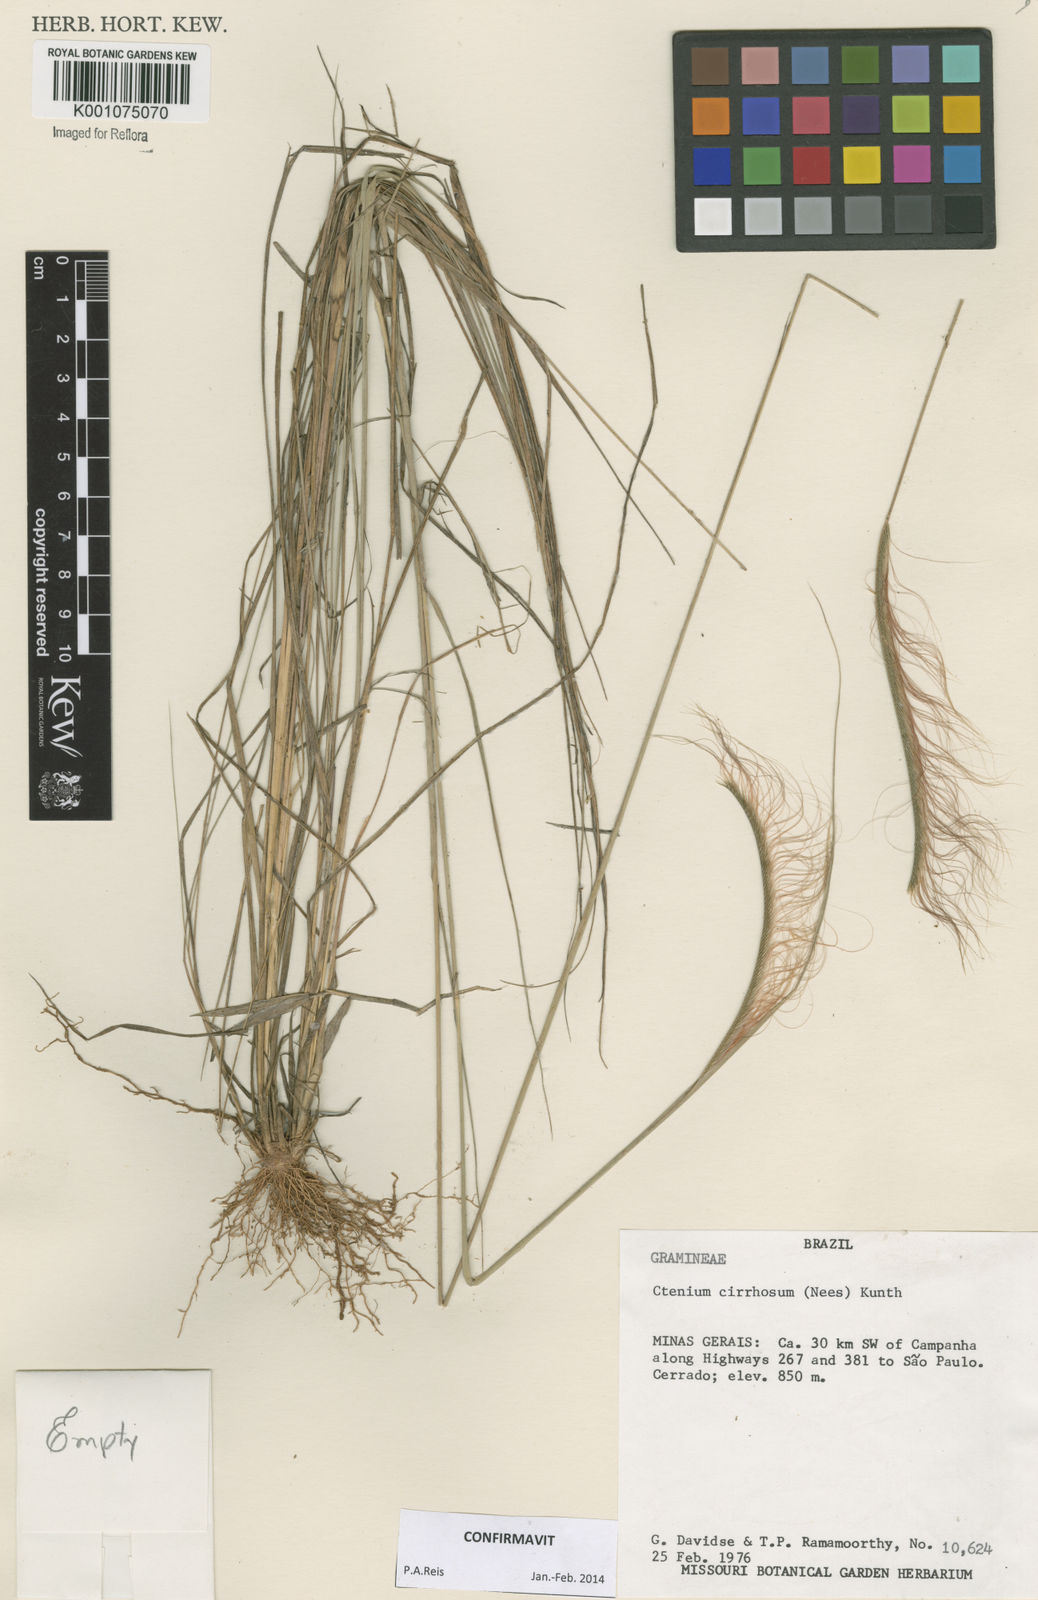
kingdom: Plantae
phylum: Tracheophyta
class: Liliopsida
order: Poales
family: Poaceae
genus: Ctenium
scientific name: Ctenium cirrhosum
